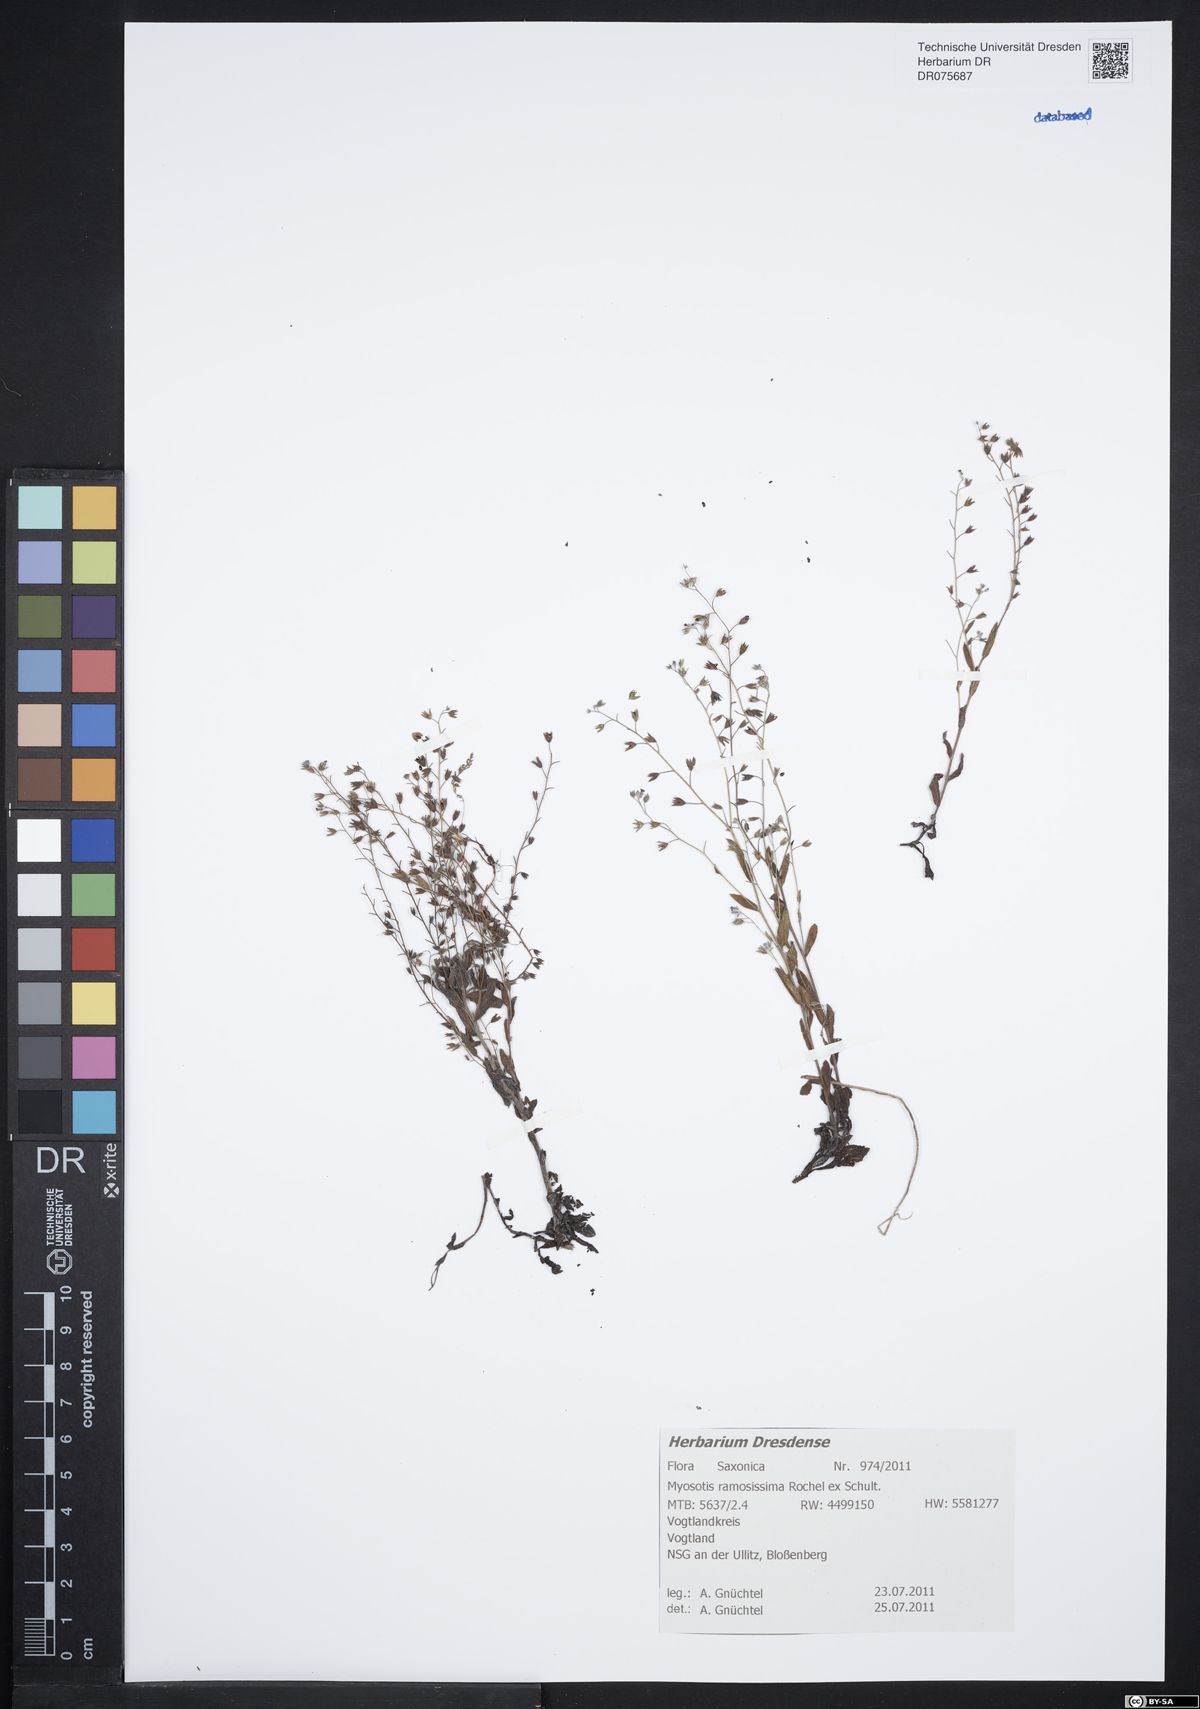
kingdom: Plantae
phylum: Tracheophyta
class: Magnoliopsida
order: Boraginales
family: Boraginaceae
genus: Myosotis
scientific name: Myosotis ramosissima
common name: Early forget-me-not
